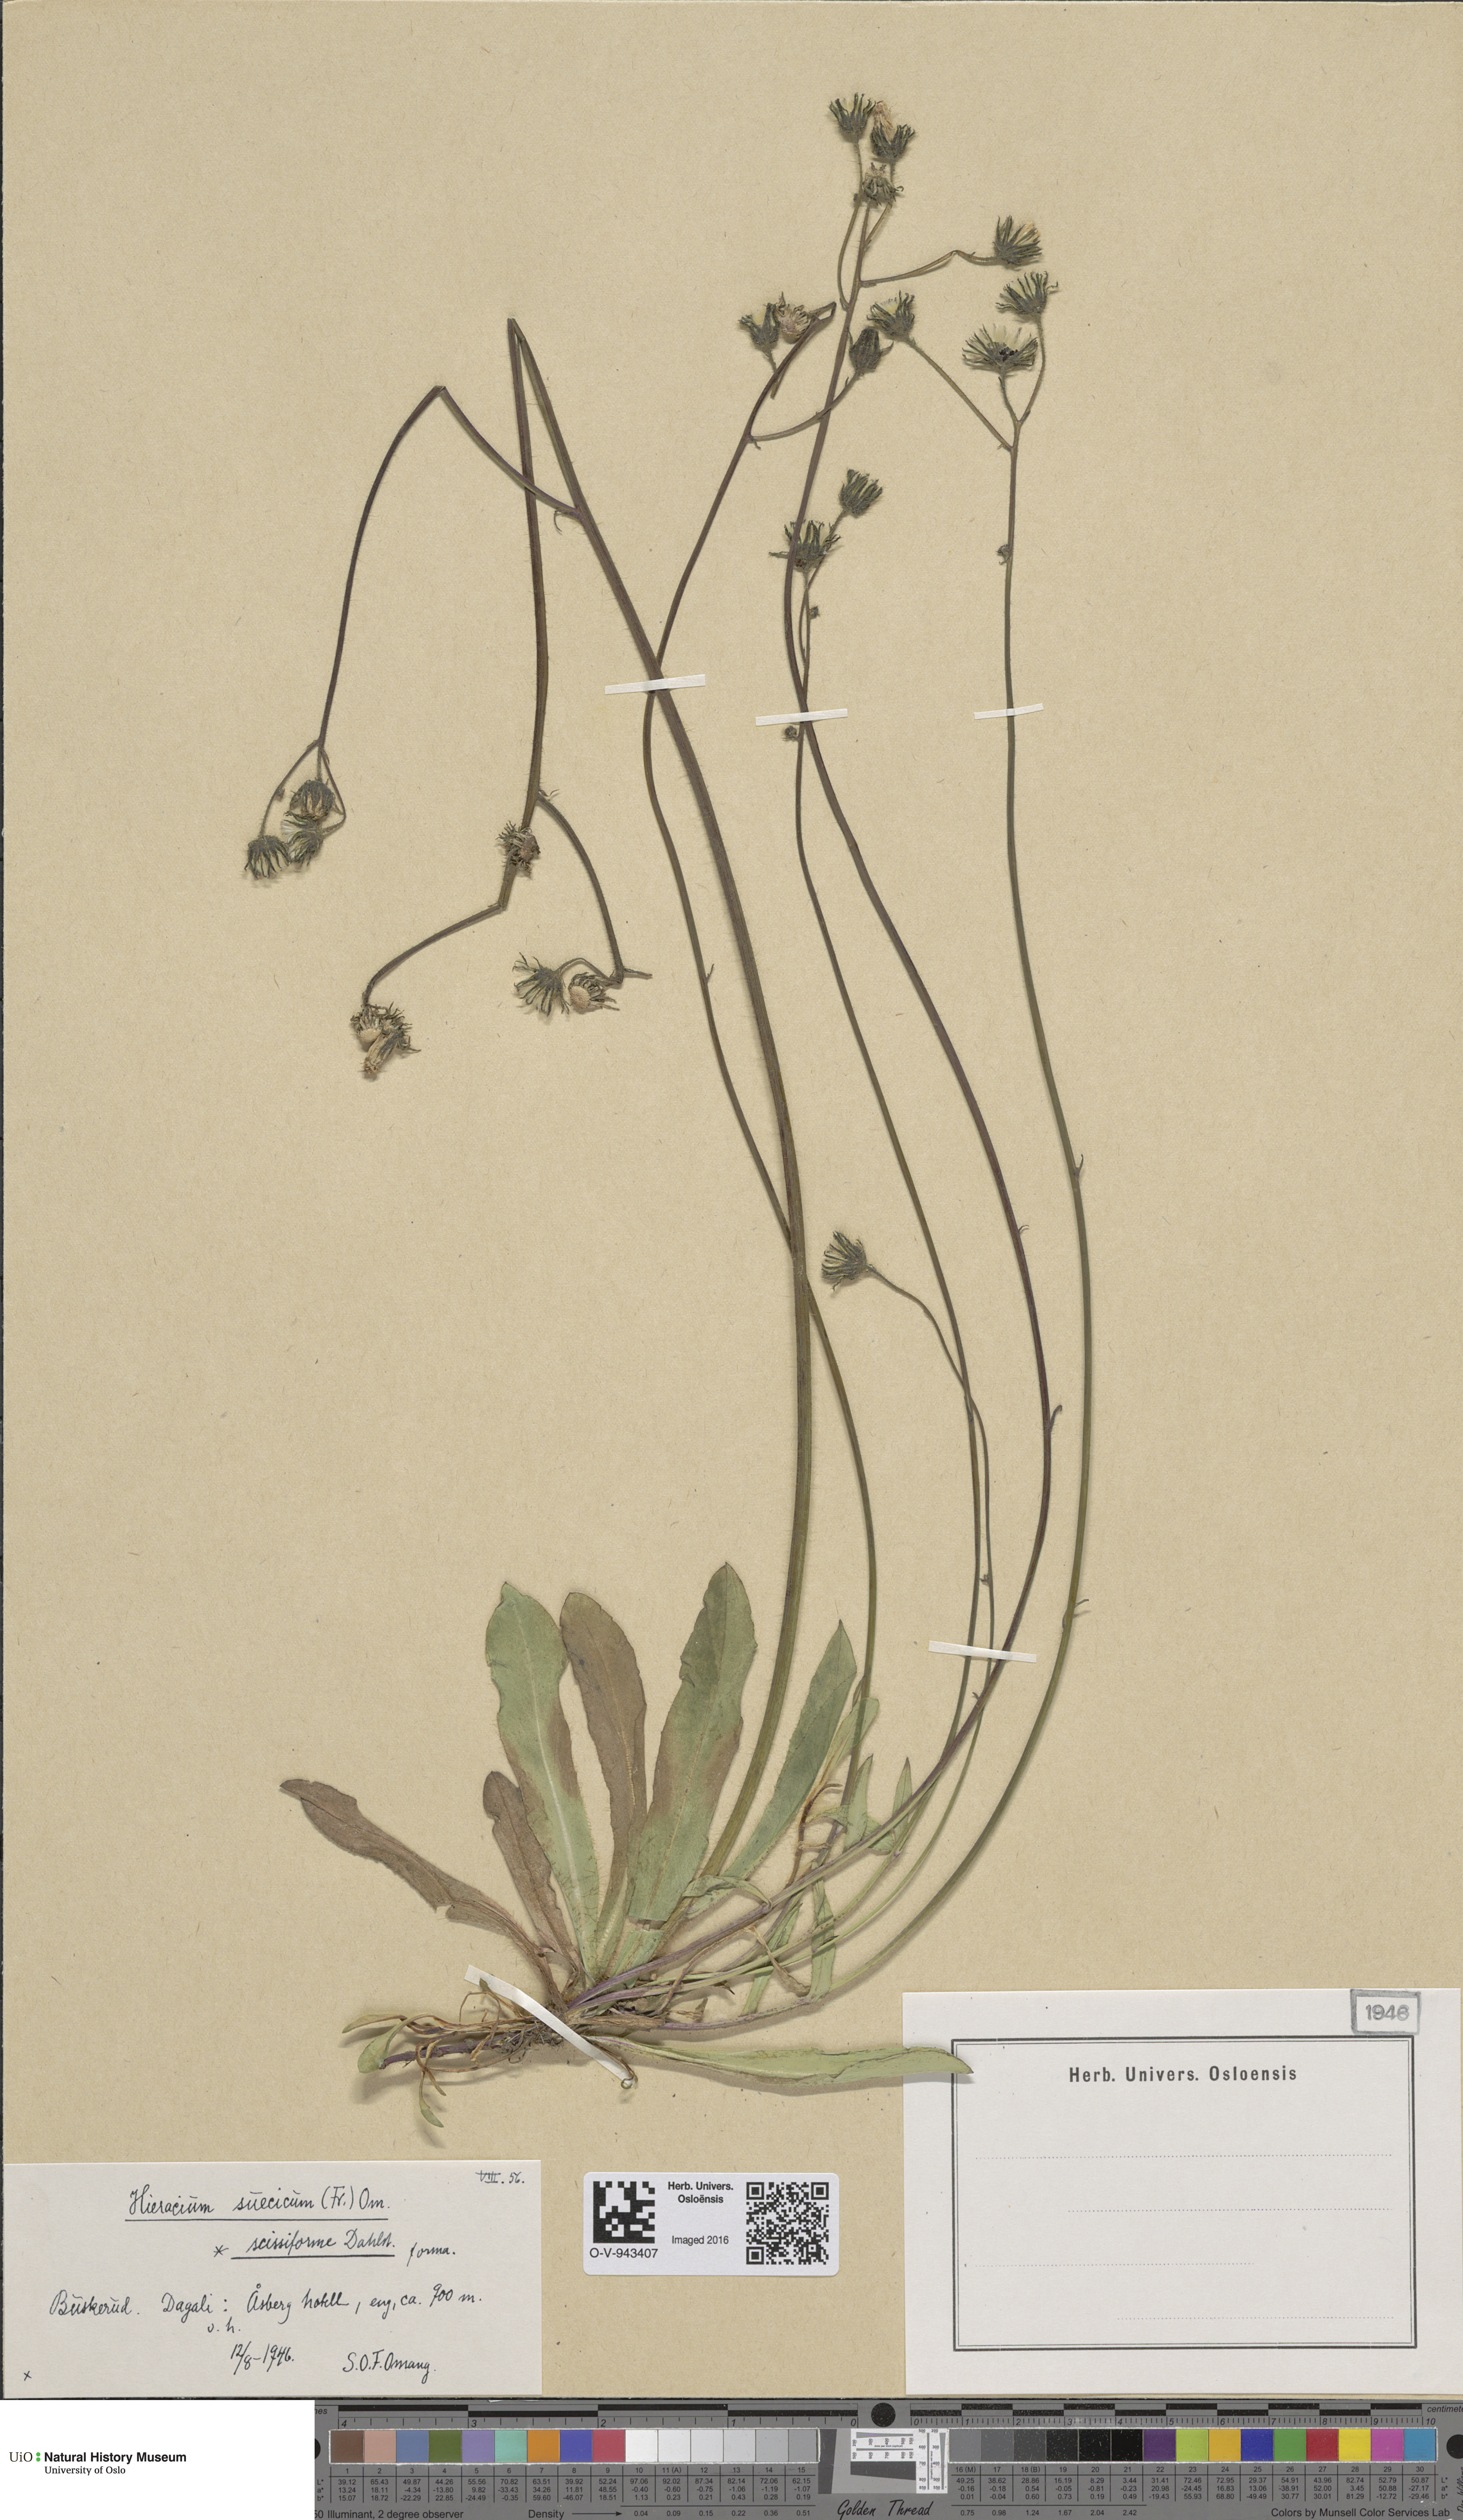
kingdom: Plantae
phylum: Tracheophyta
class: Magnoliopsida
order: Asterales
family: Asteraceae
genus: Pilosella
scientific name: Pilosella dubia
